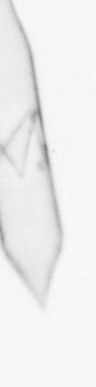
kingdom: Chromista
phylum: Ochrophyta
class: Bacillariophyceae
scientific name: Bacillariophyceae
